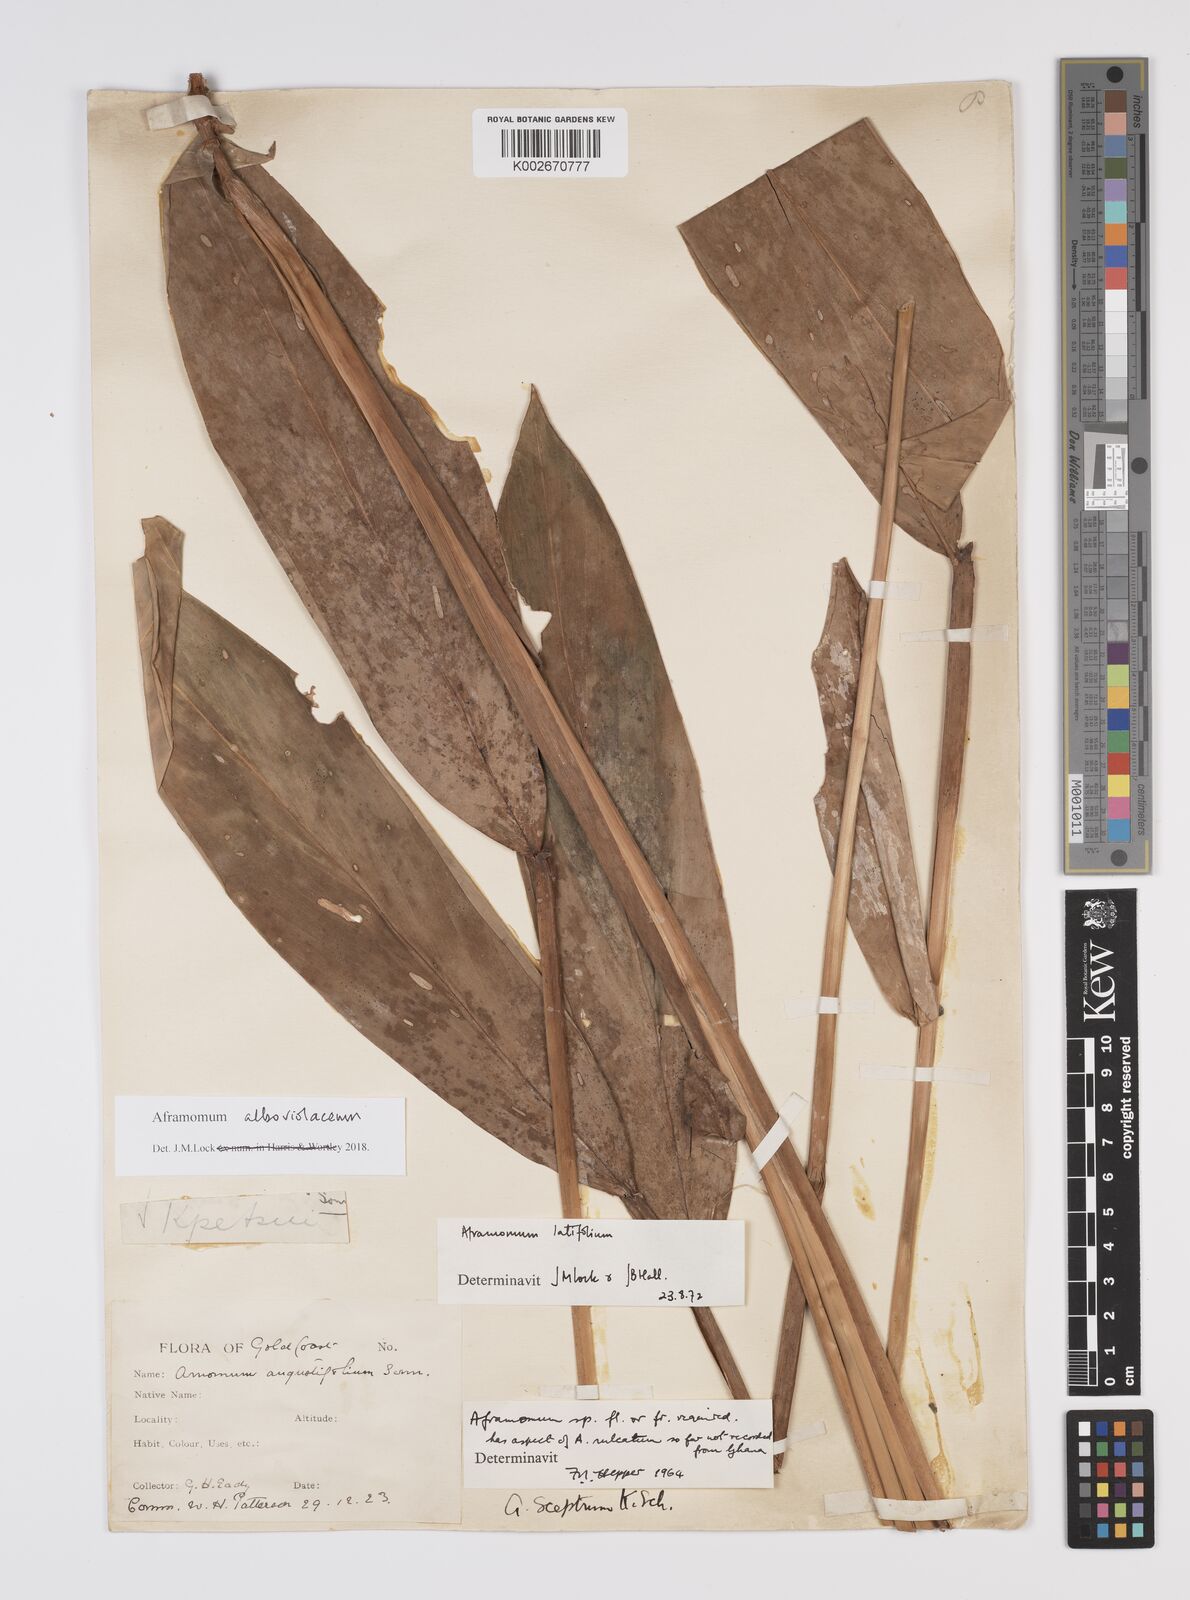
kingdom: Plantae
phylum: Tracheophyta
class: Liliopsida
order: Zingiberales
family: Zingiberaceae
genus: Aframomum
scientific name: Aframomum alboviolaceum
